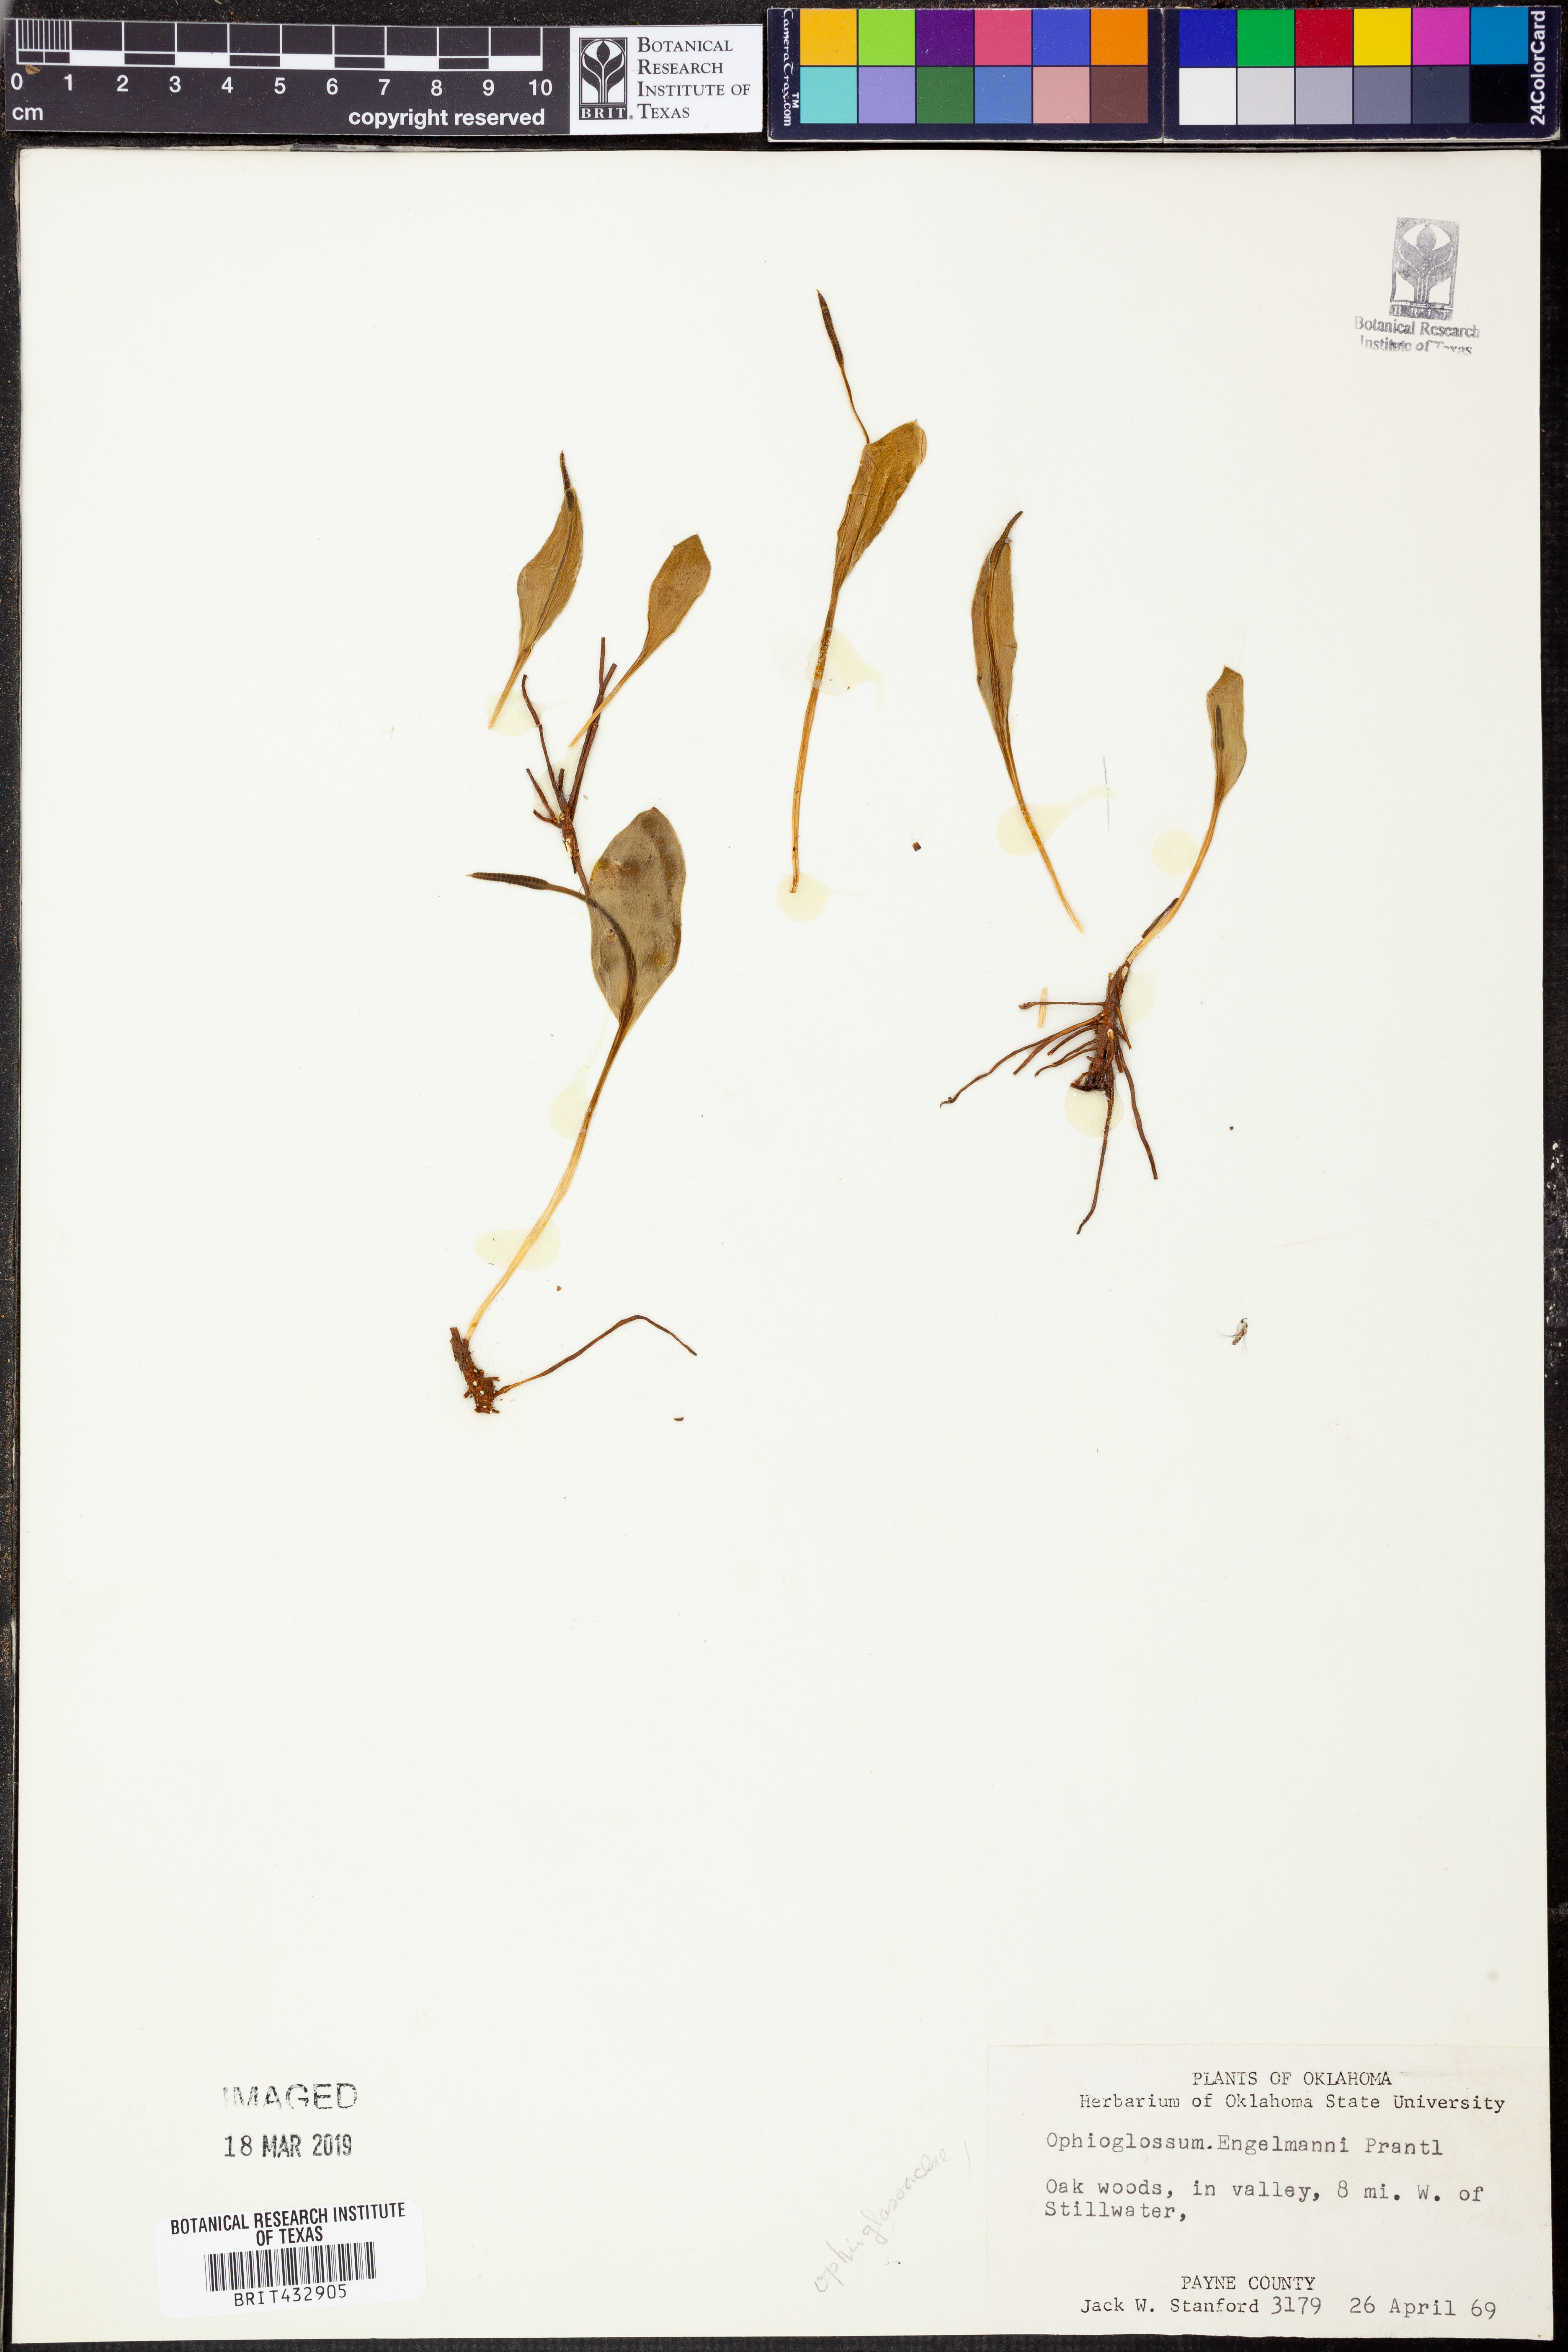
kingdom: Plantae
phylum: Tracheophyta
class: Polypodiopsida
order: Ophioglossales
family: Ophioglossaceae
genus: Ophioglossum
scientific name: Ophioglossum engelmannii
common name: Limestone adder's-tongue
